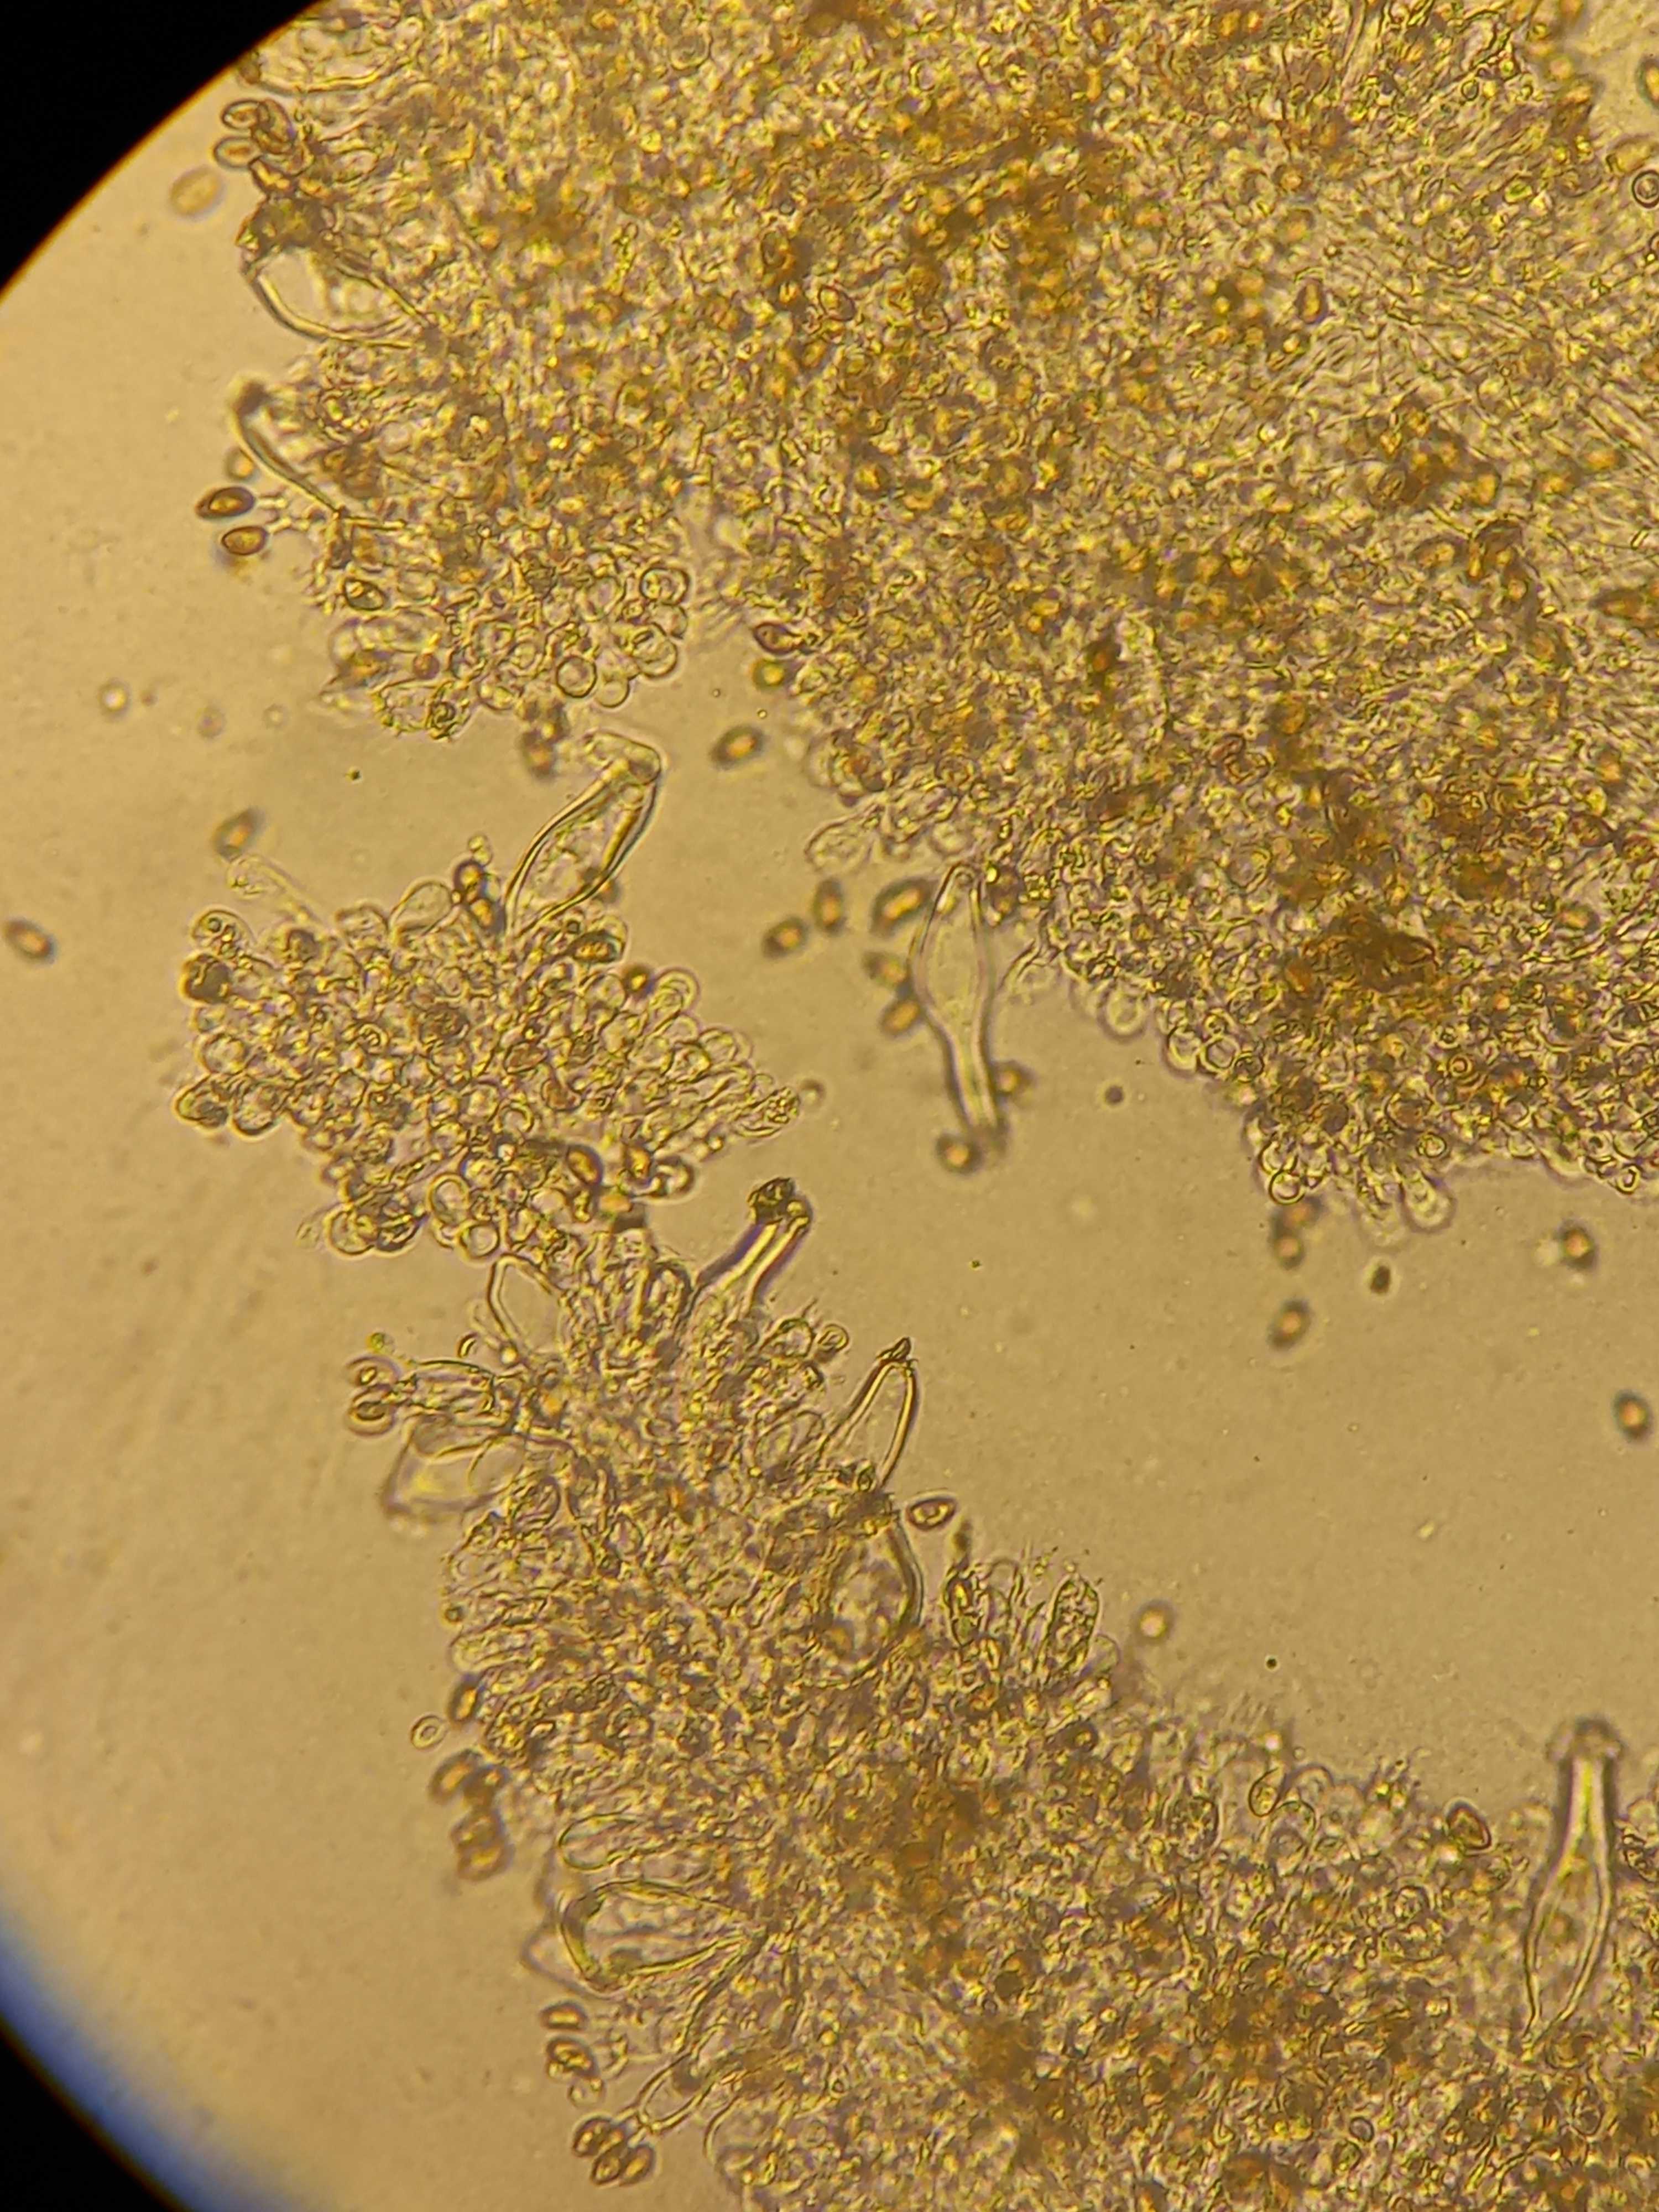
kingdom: Fungi
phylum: Basidiomycota
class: Agaricomycetes
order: Agaricales
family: Inocybaceae
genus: Inocybe
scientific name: Inocybe
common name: trævlhat
